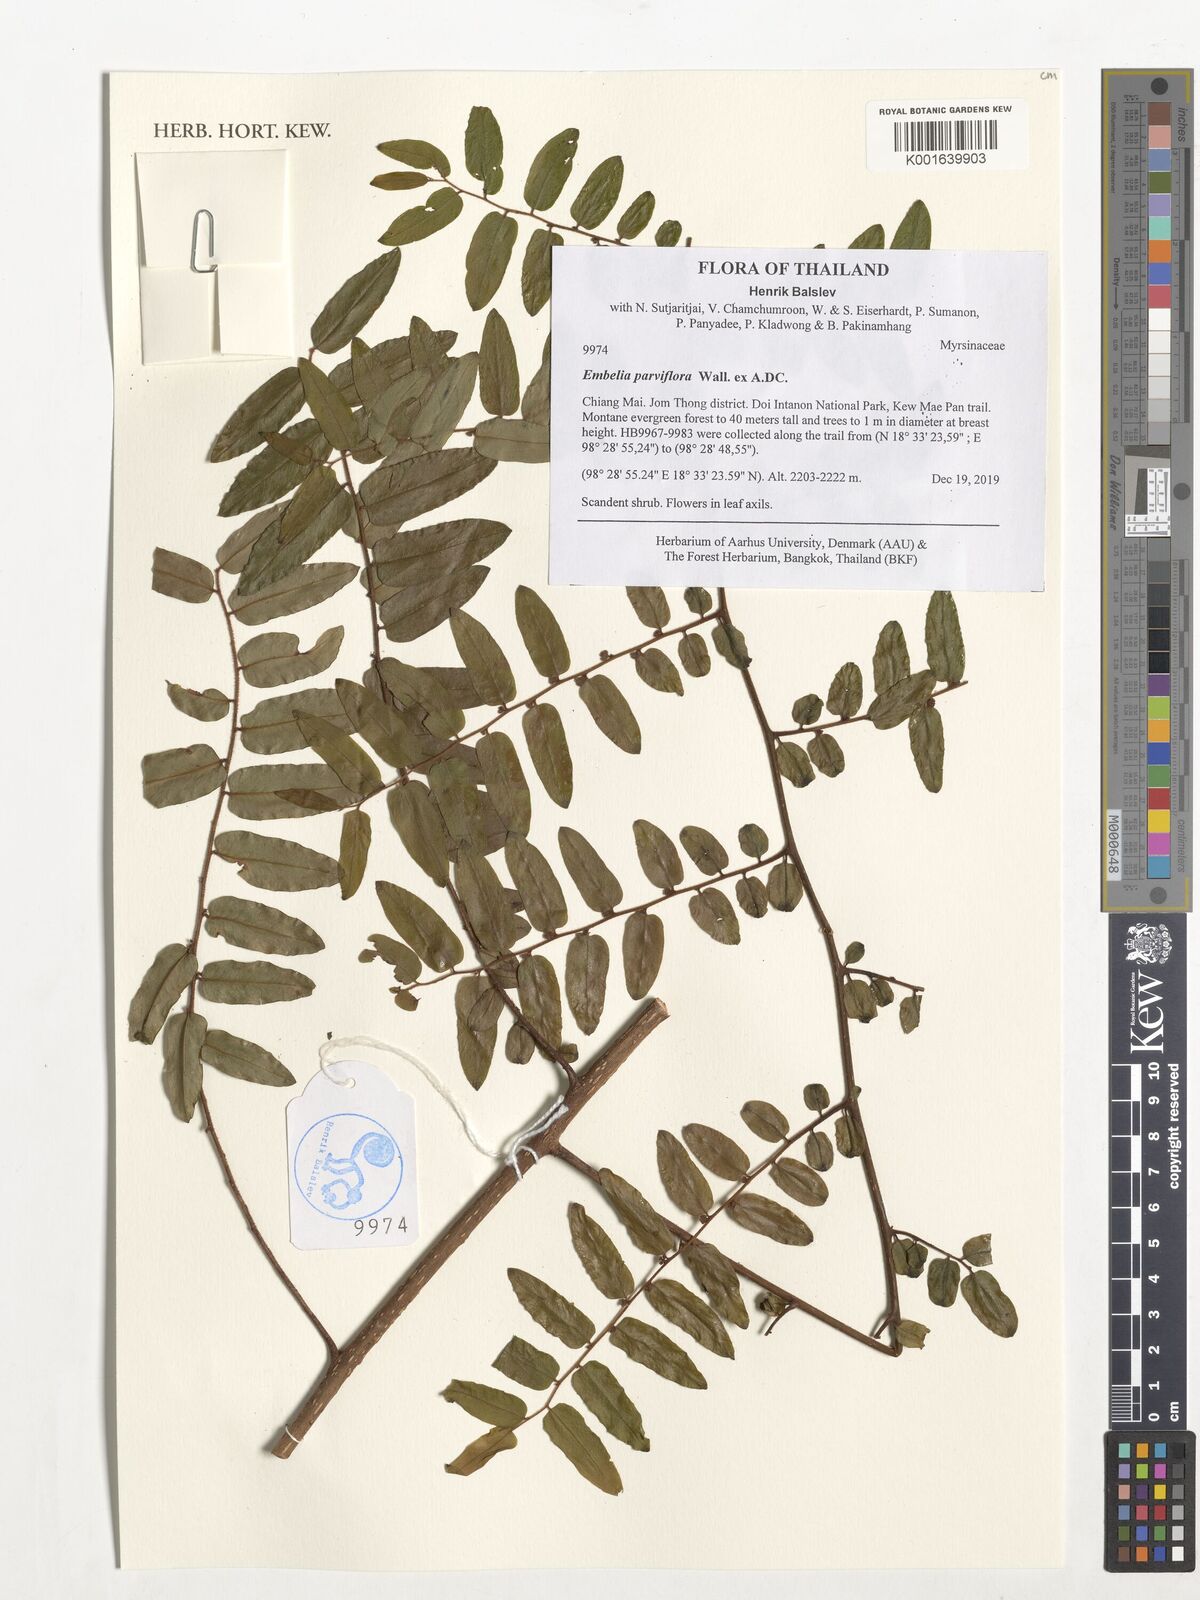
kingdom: Plantae
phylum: Tracheophyta
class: Magnoliopsida
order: Ericales
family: Primulaceae
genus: Embelia
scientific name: Embelia parviflora
